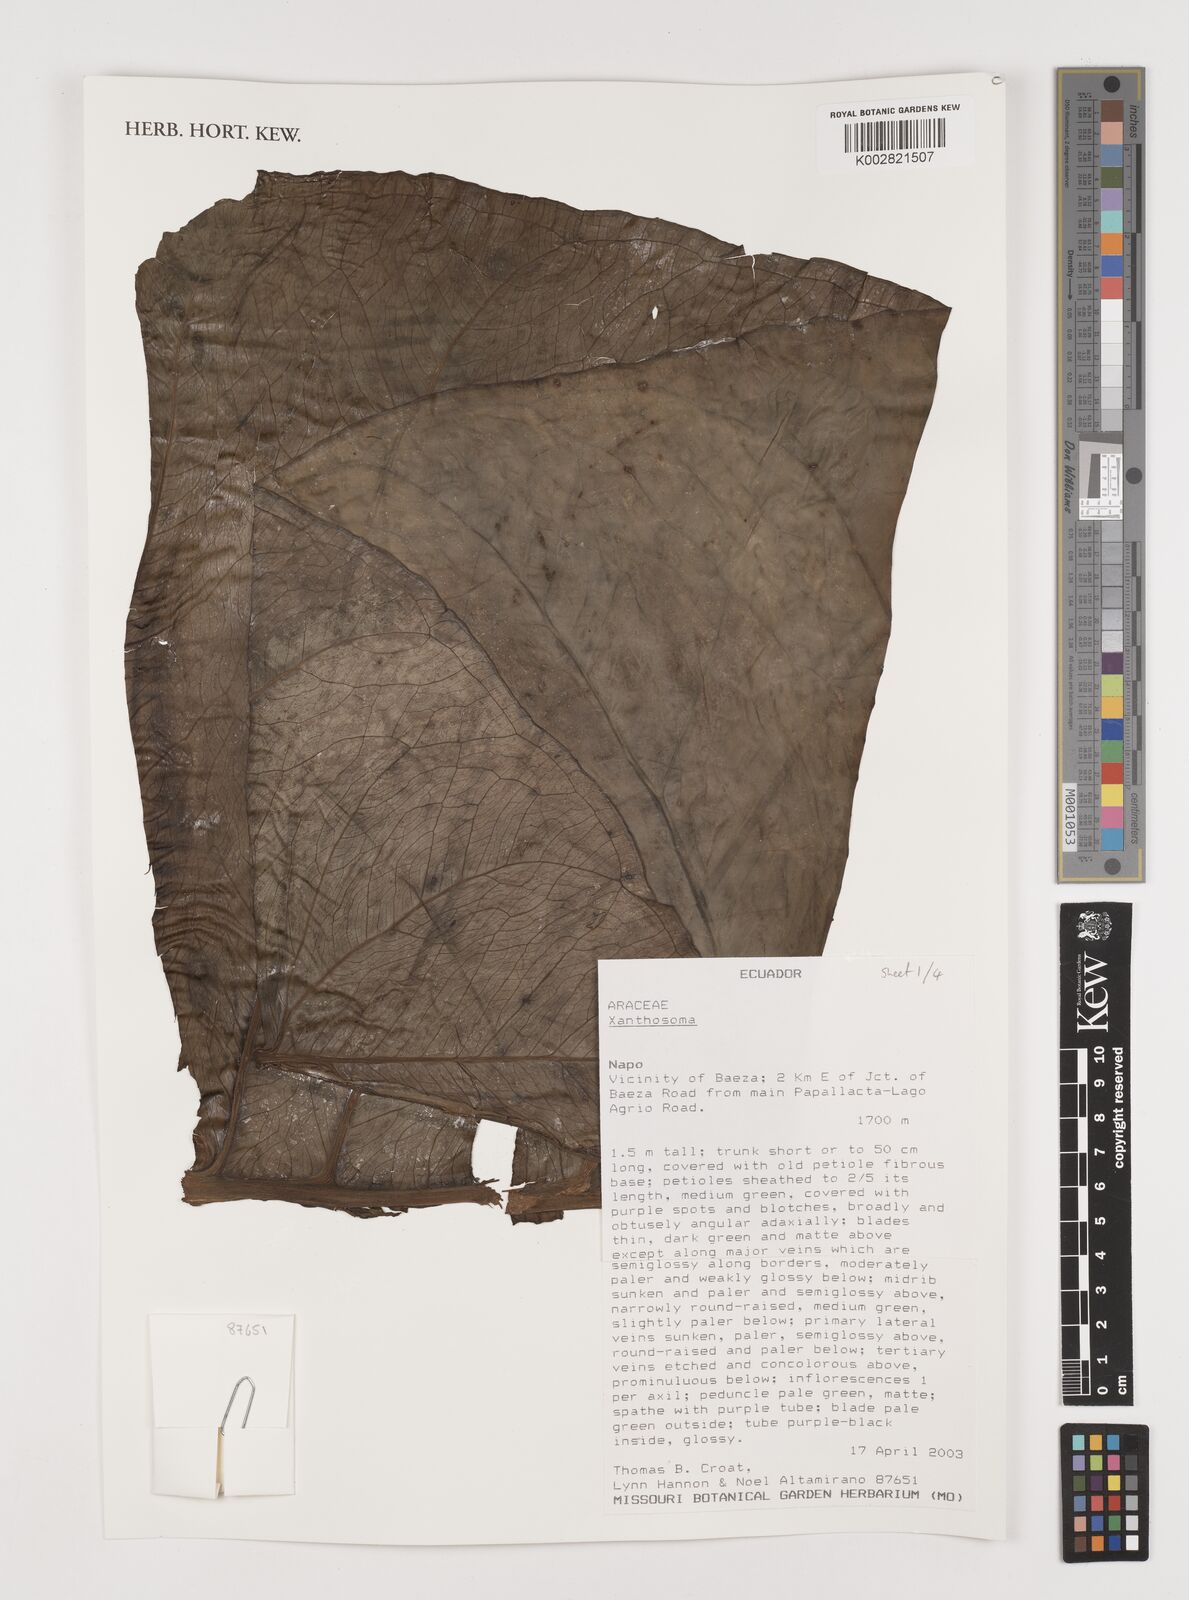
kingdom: Plantae
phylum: Tracheophyta
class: Liliopsida
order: Alismatales
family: Araceae
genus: Xanthosoma
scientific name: Xanthosoma
